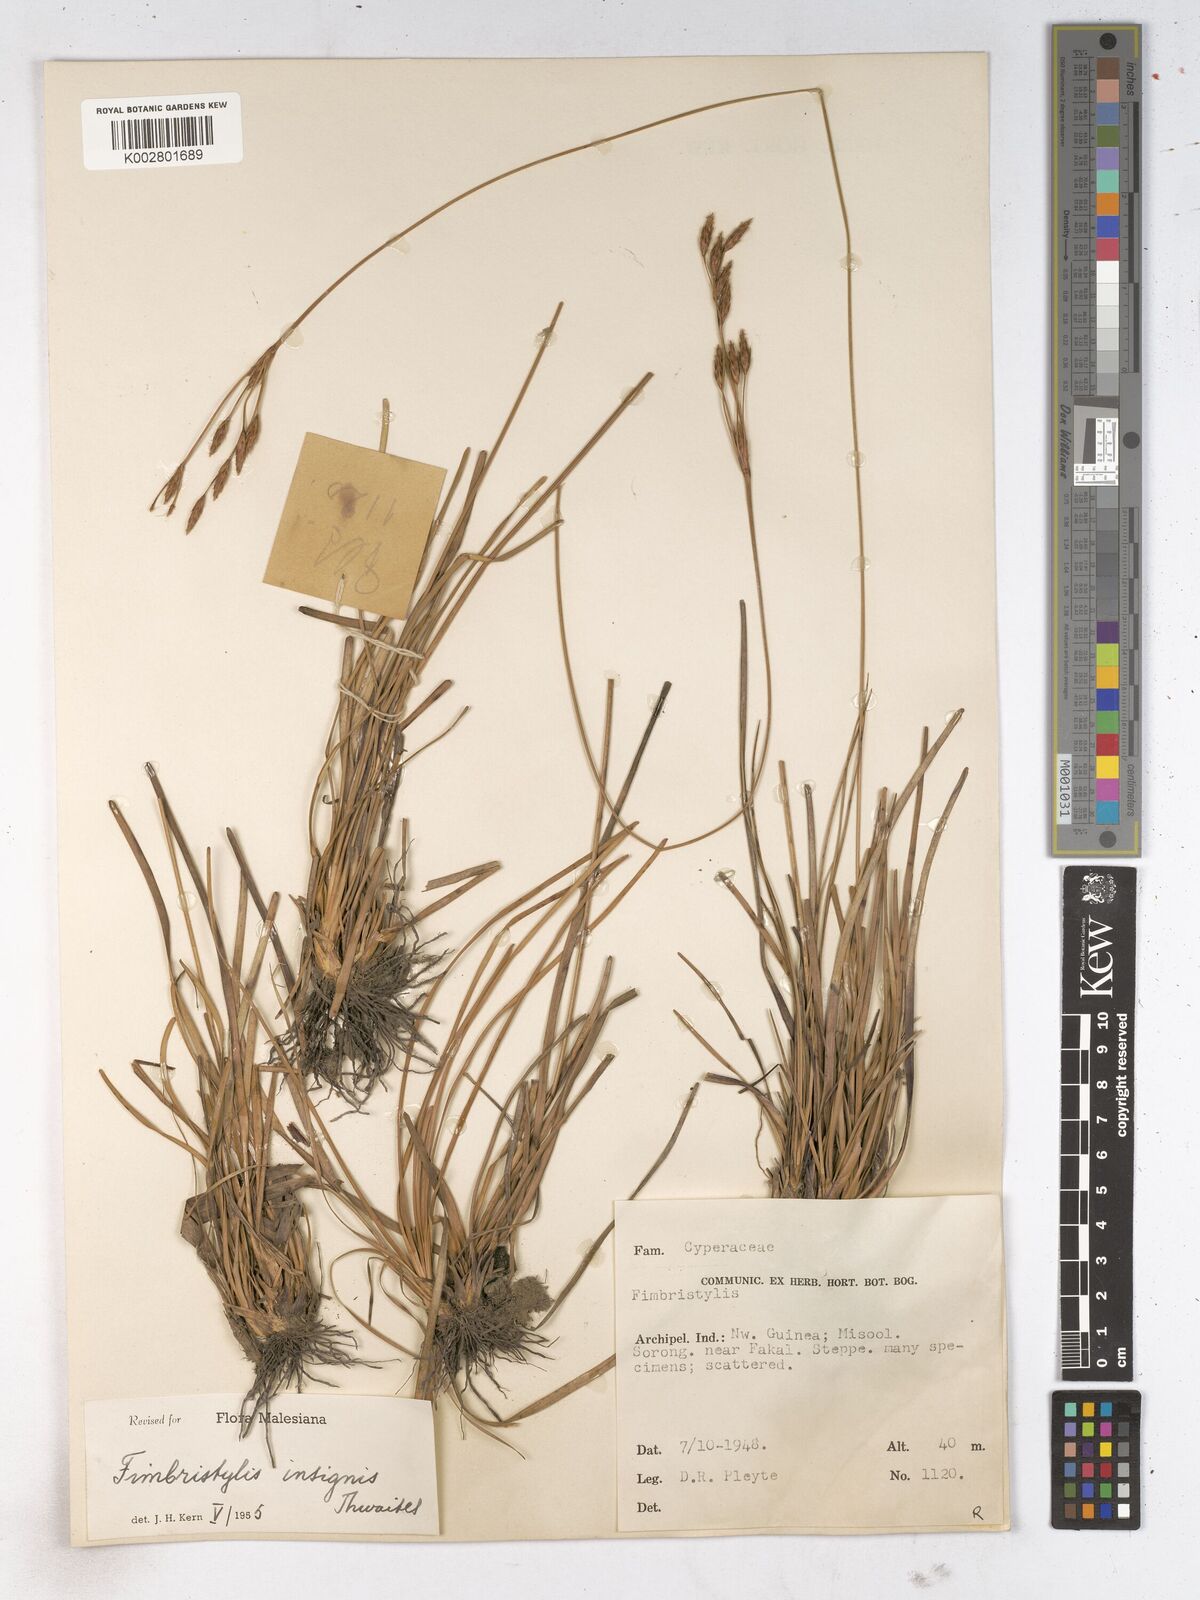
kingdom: Plantae
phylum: Tracheophyta
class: Liliopsida
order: Poales
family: Cyperaceae
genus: Fimbristylis
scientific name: Fimbristylis insignis
